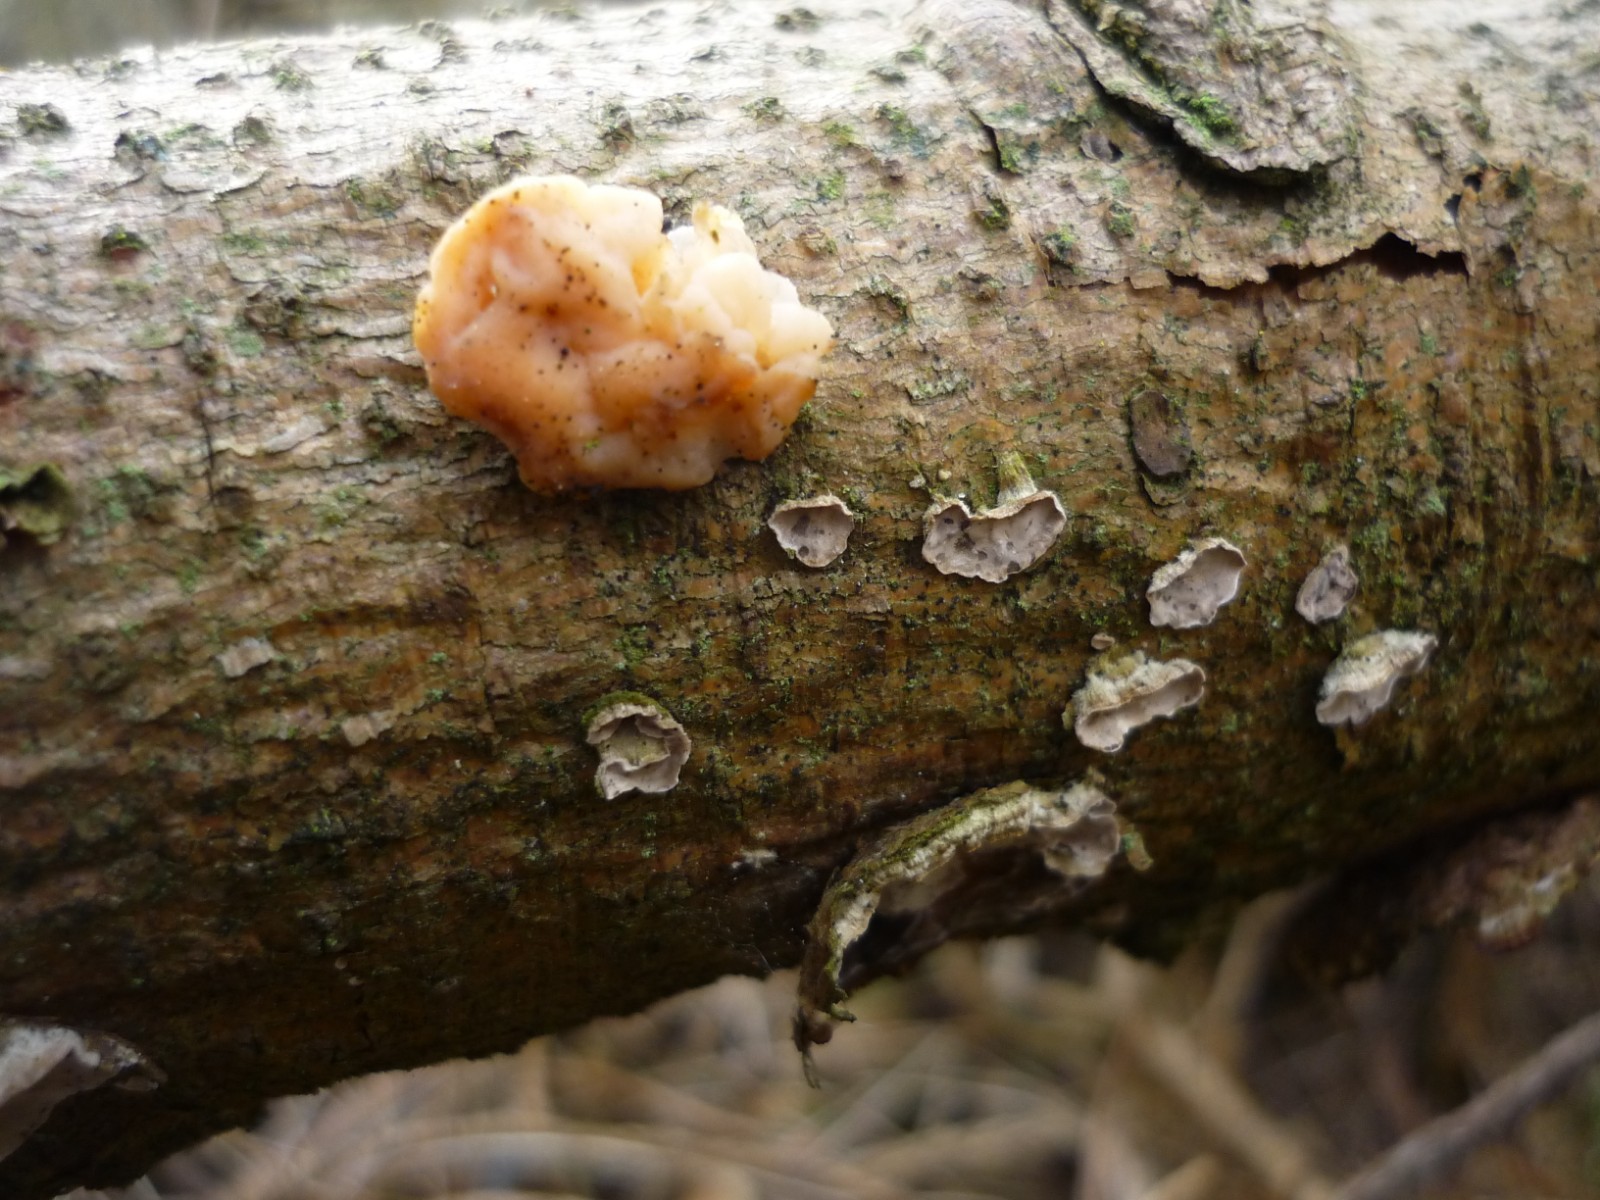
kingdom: Fungi
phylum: Basidiomycota
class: Tremellomycetes
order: Tremellales
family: Naemateliaceae
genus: Naematelia
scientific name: Naematelia encephala
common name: fyrre-bævresvamp
